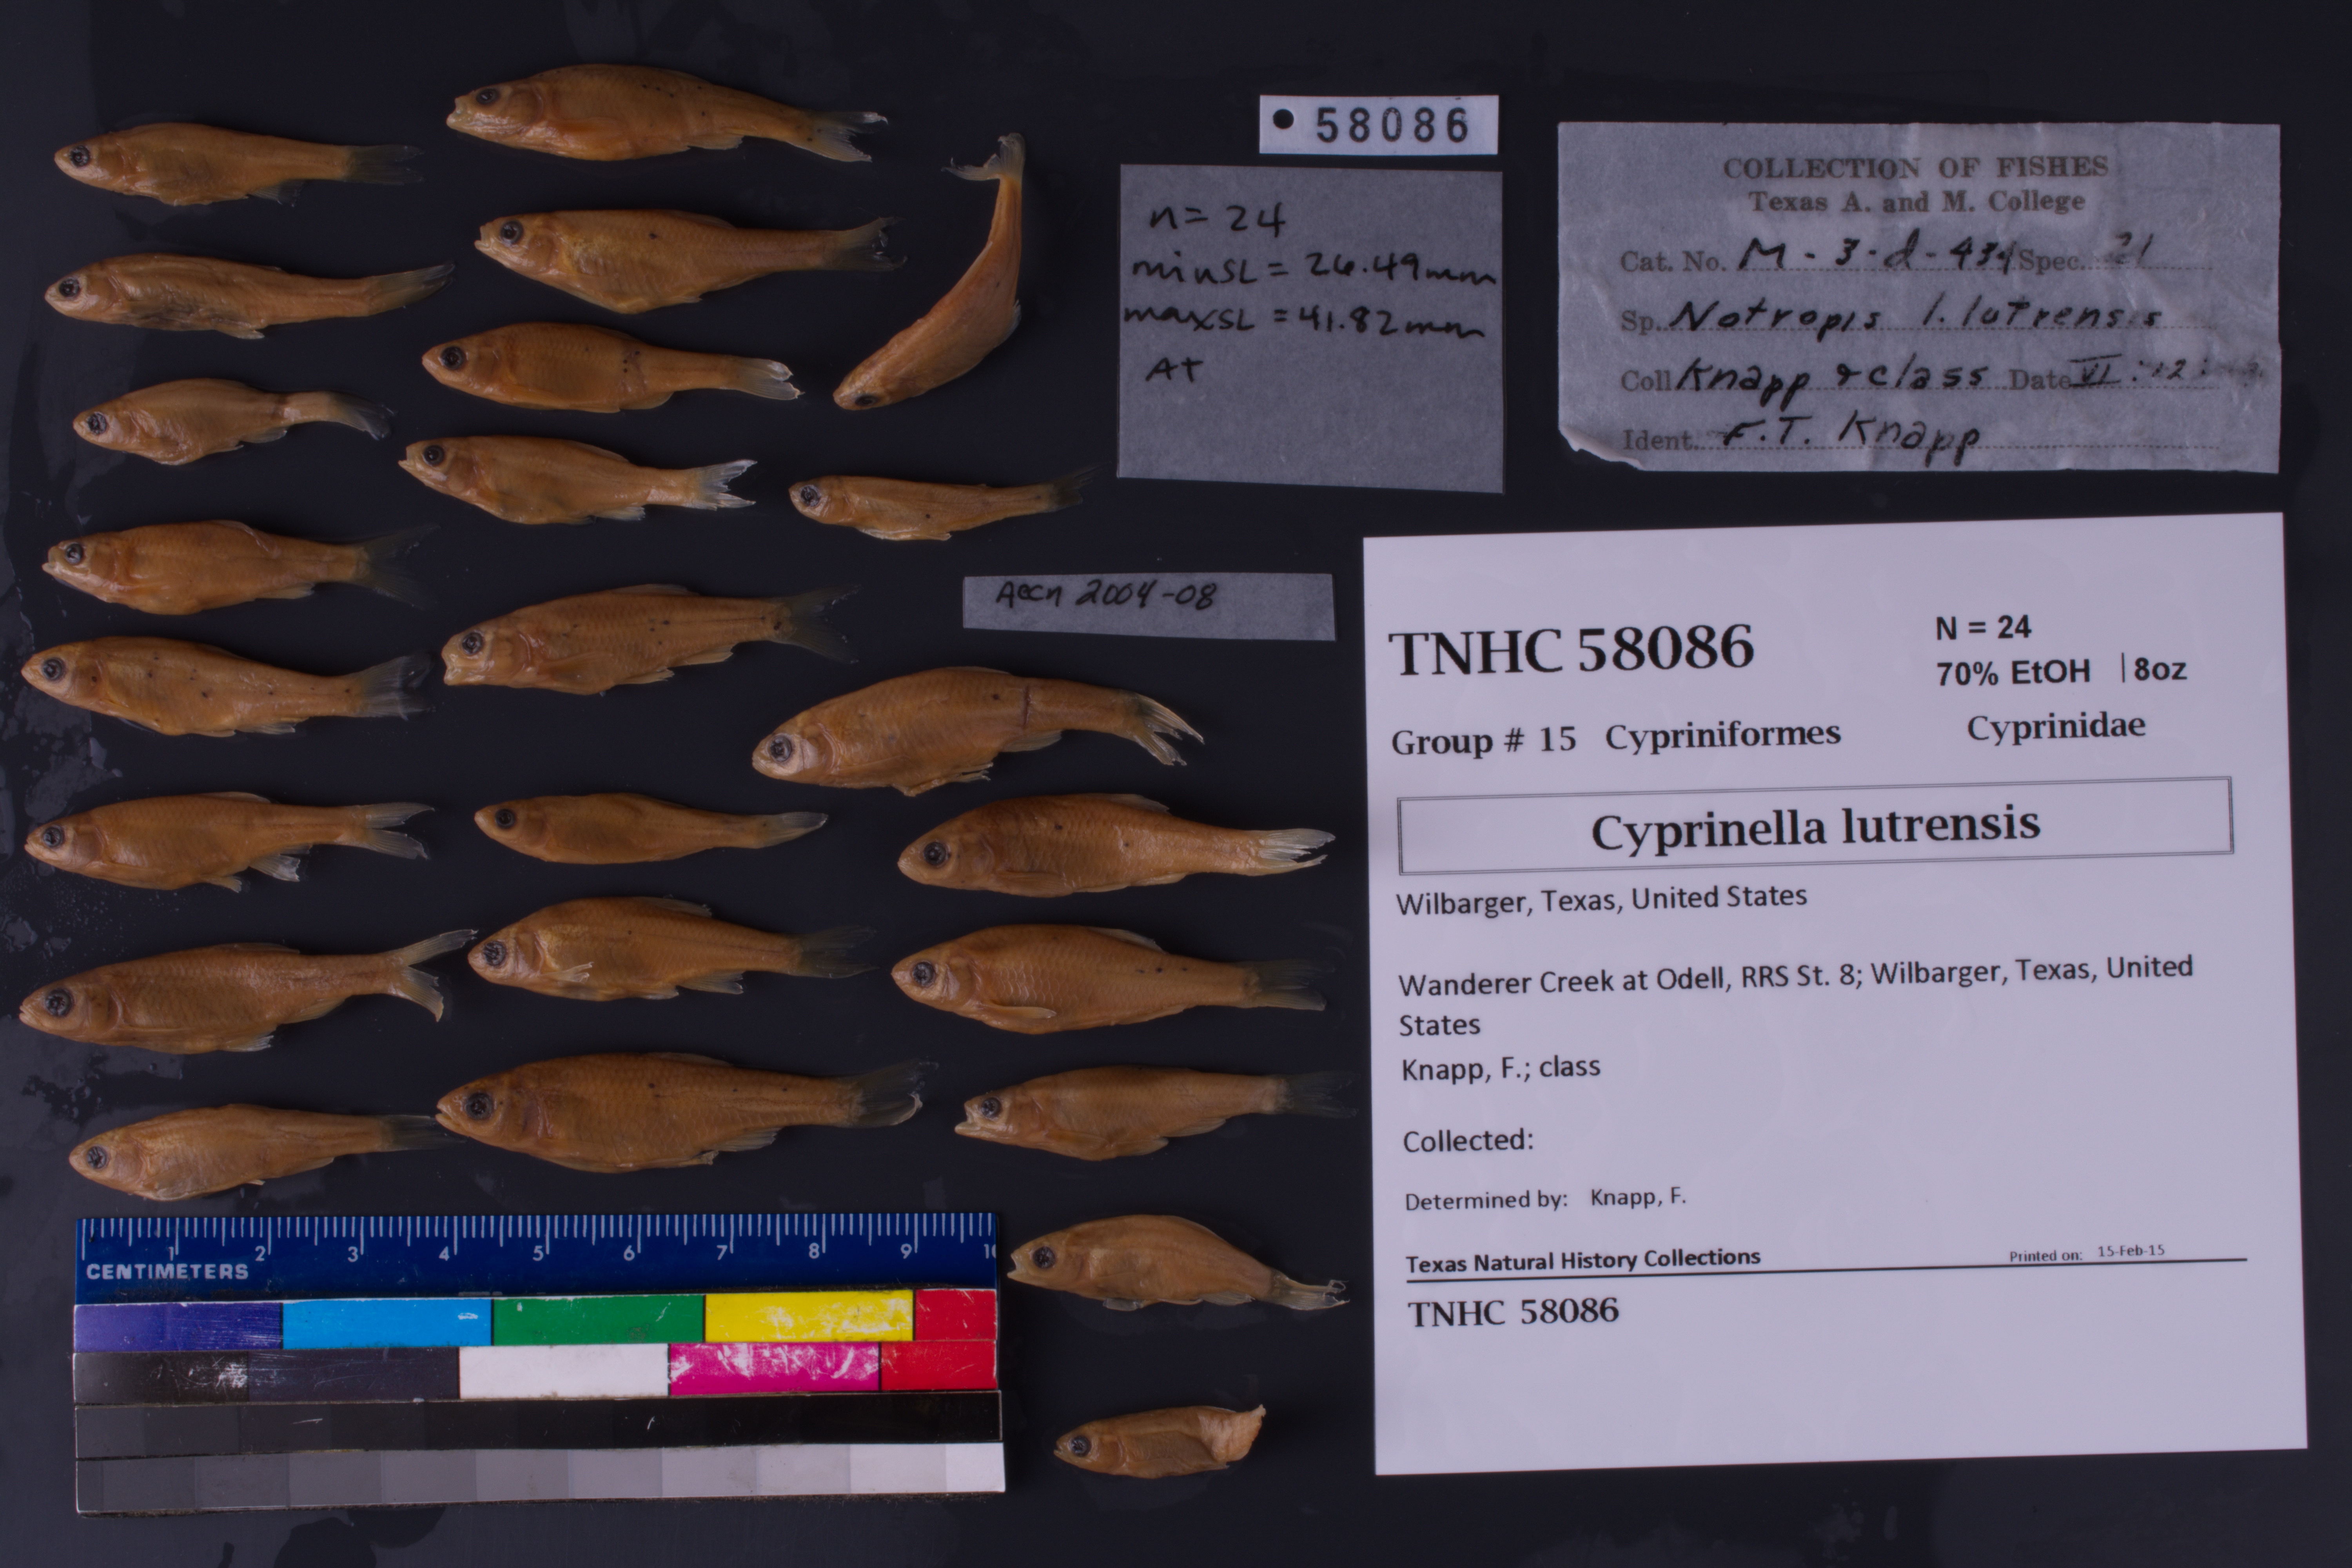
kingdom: Animalia
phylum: Chordata
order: Cypriniformes
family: Cyprinidae
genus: Cyprinella
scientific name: Cyprinella lutrensis
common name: Red shiner
